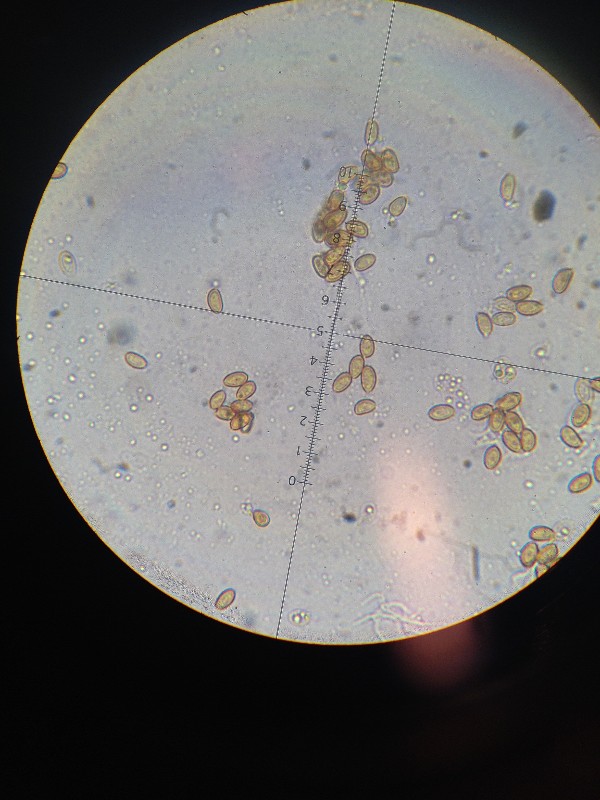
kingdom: Fungi
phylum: Basidiomycota
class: Agaricomycetes
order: Agaricales
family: Strophariaceae
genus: Stropharia
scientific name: Stropharia cyanea
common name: blågrøn bredblad
